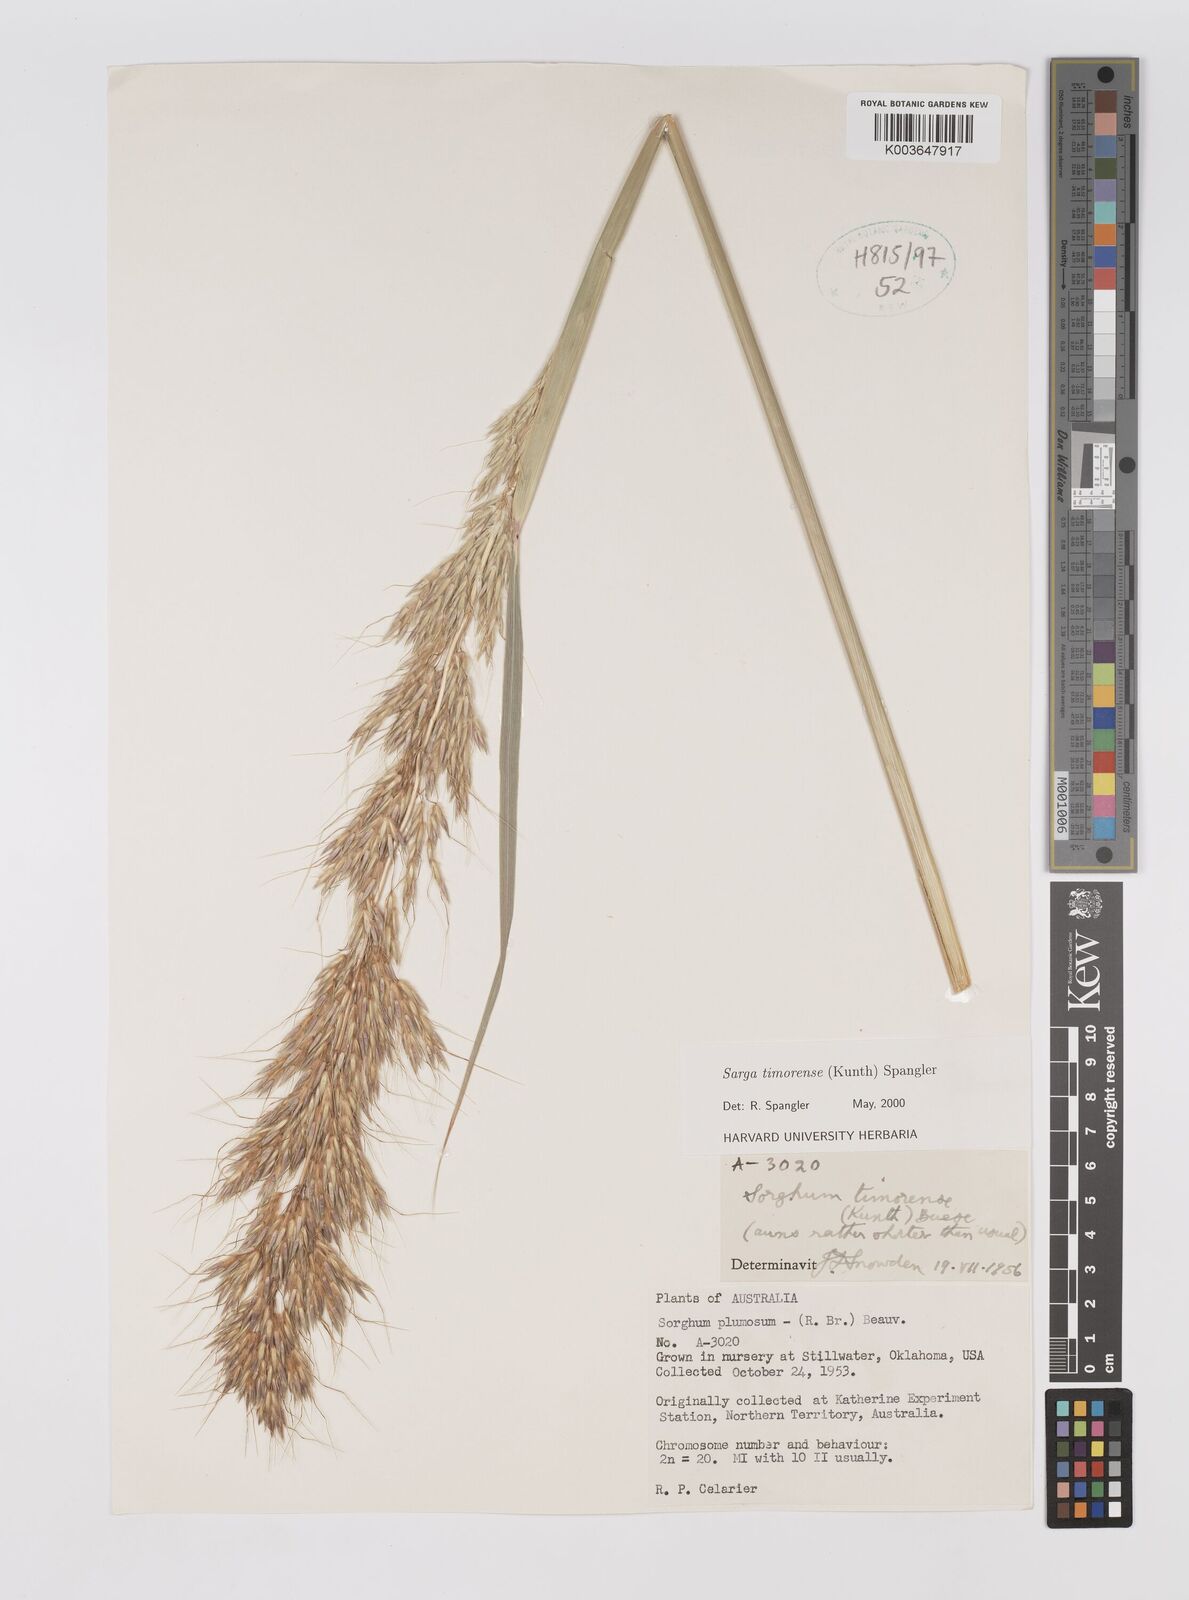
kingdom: Plantae
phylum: Tracheophyta
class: Liliopsida
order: Poales
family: Poaceae
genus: Sarga
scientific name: Sarga timorensis
